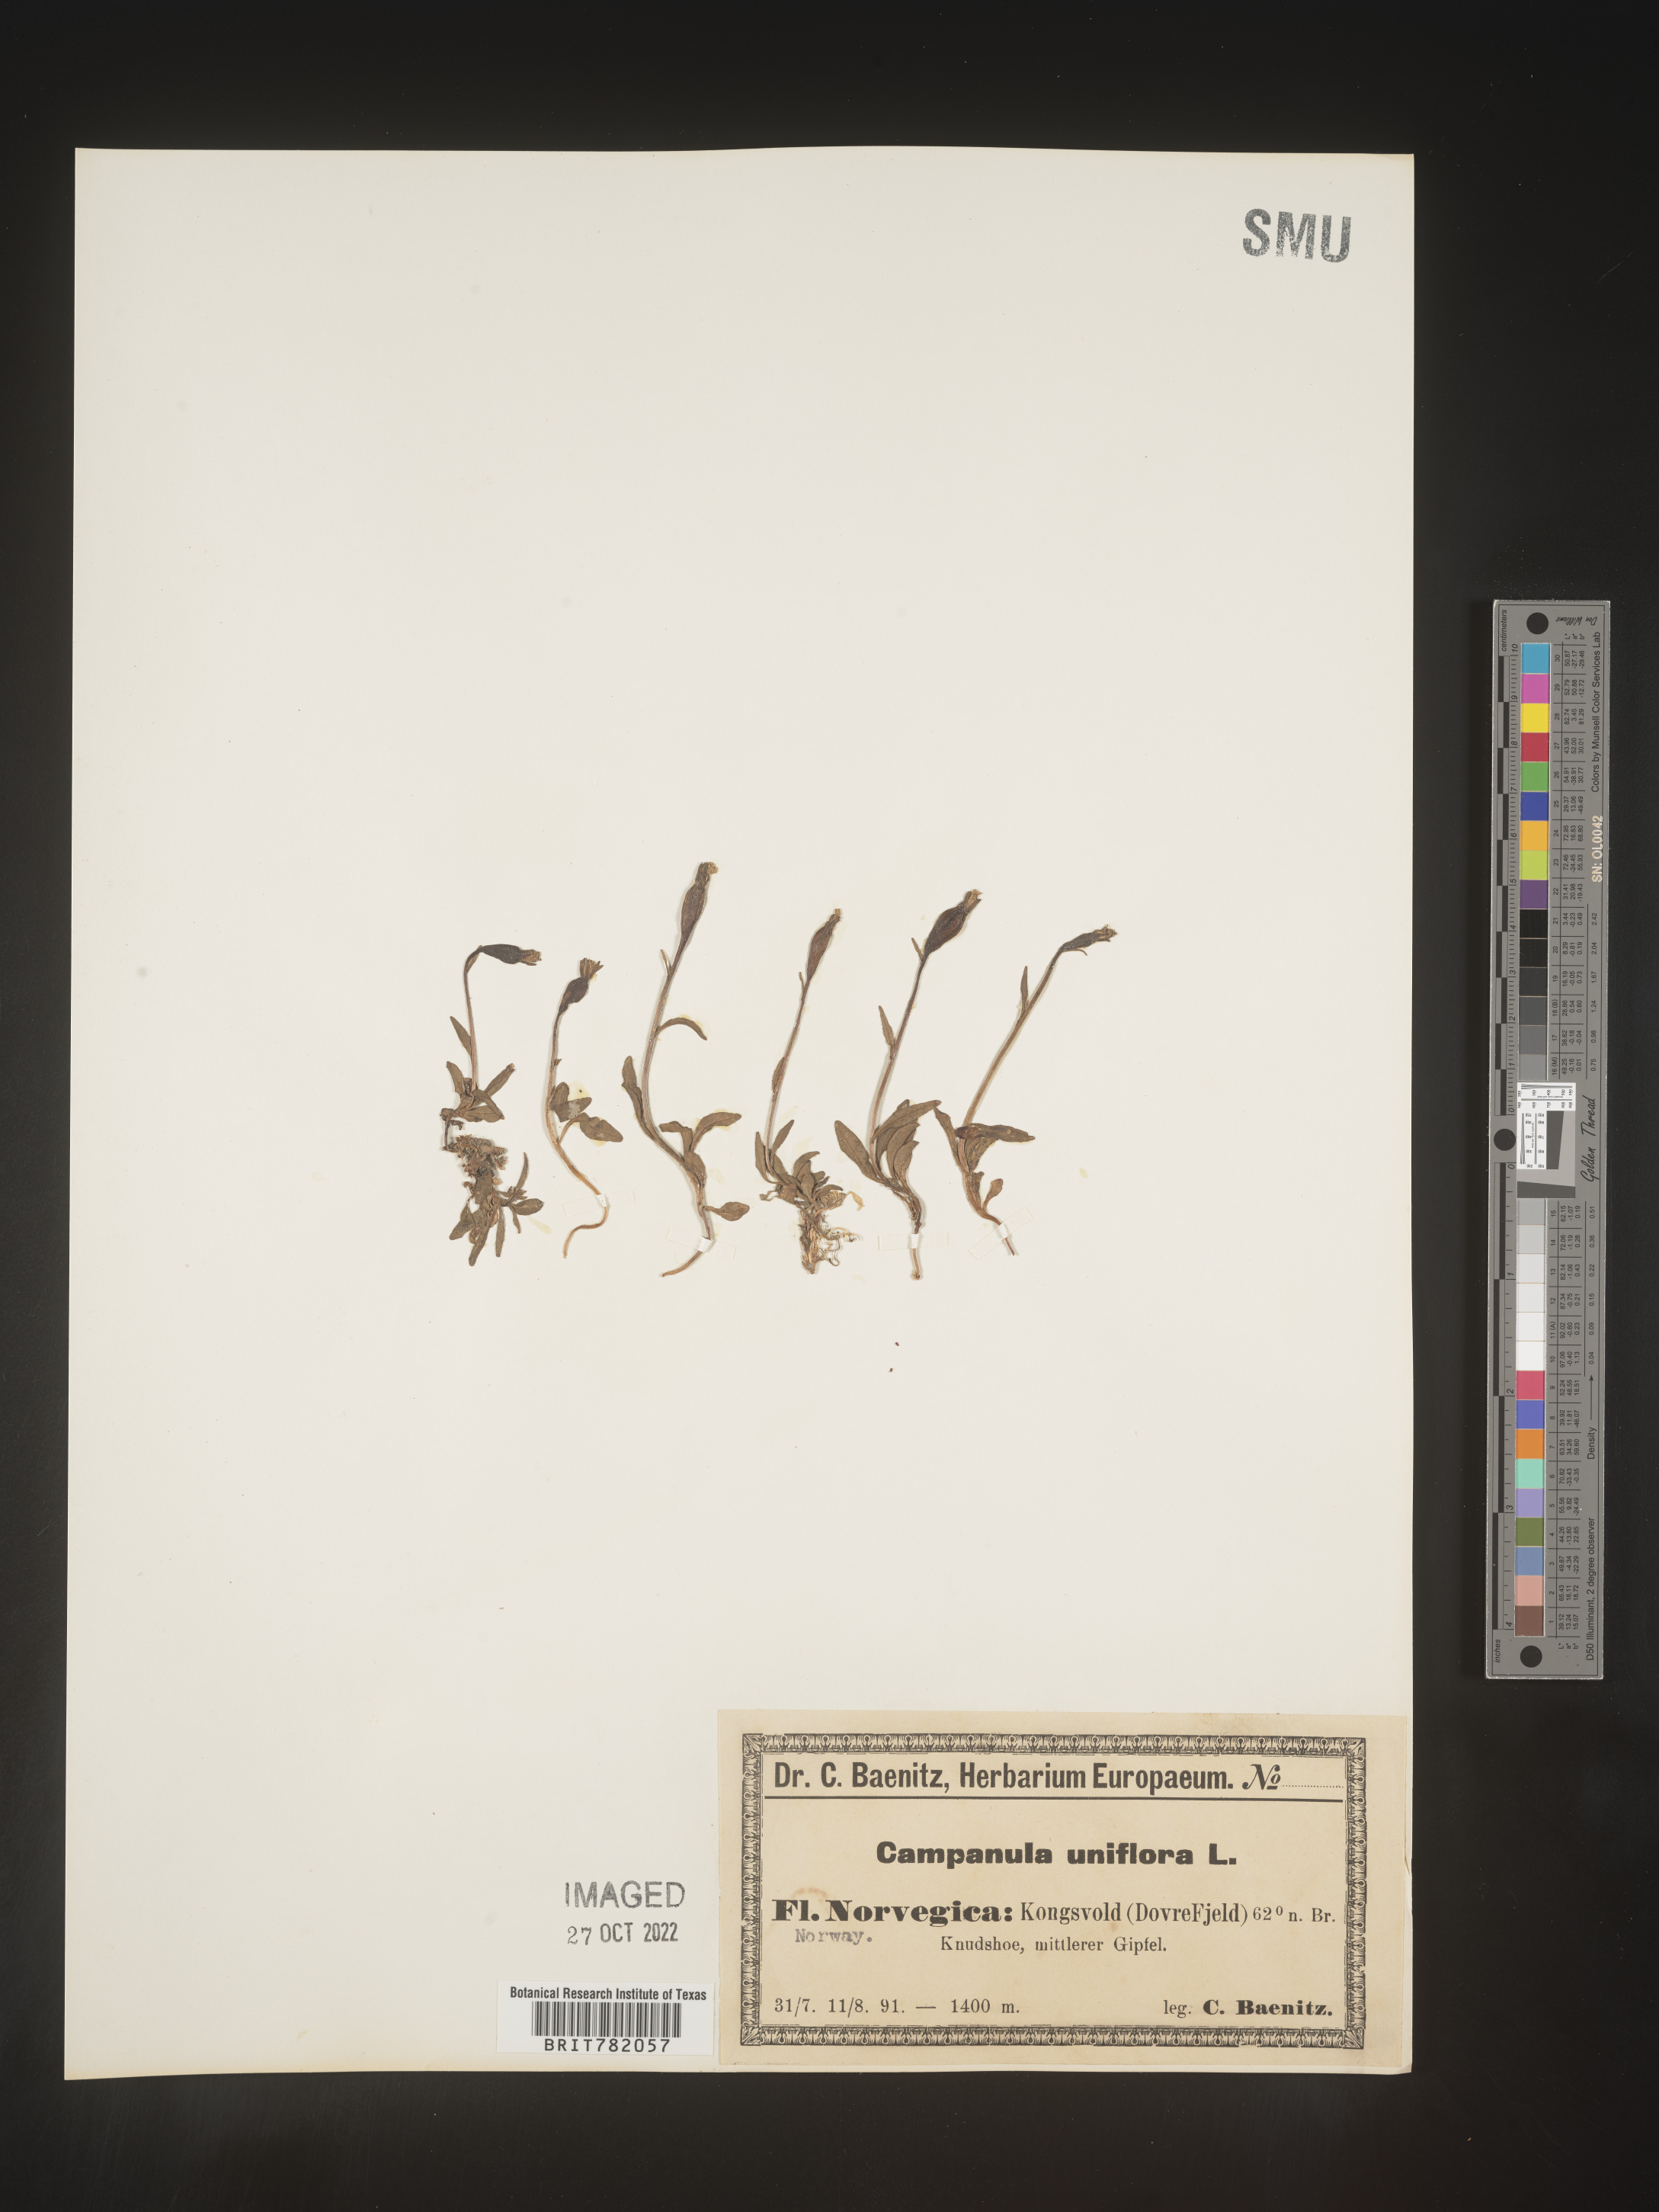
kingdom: Plantae
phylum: Tracheophyta
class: Magnoliopsida
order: Asterales
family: Campanulaceae
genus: Campanula
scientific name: Campanula
